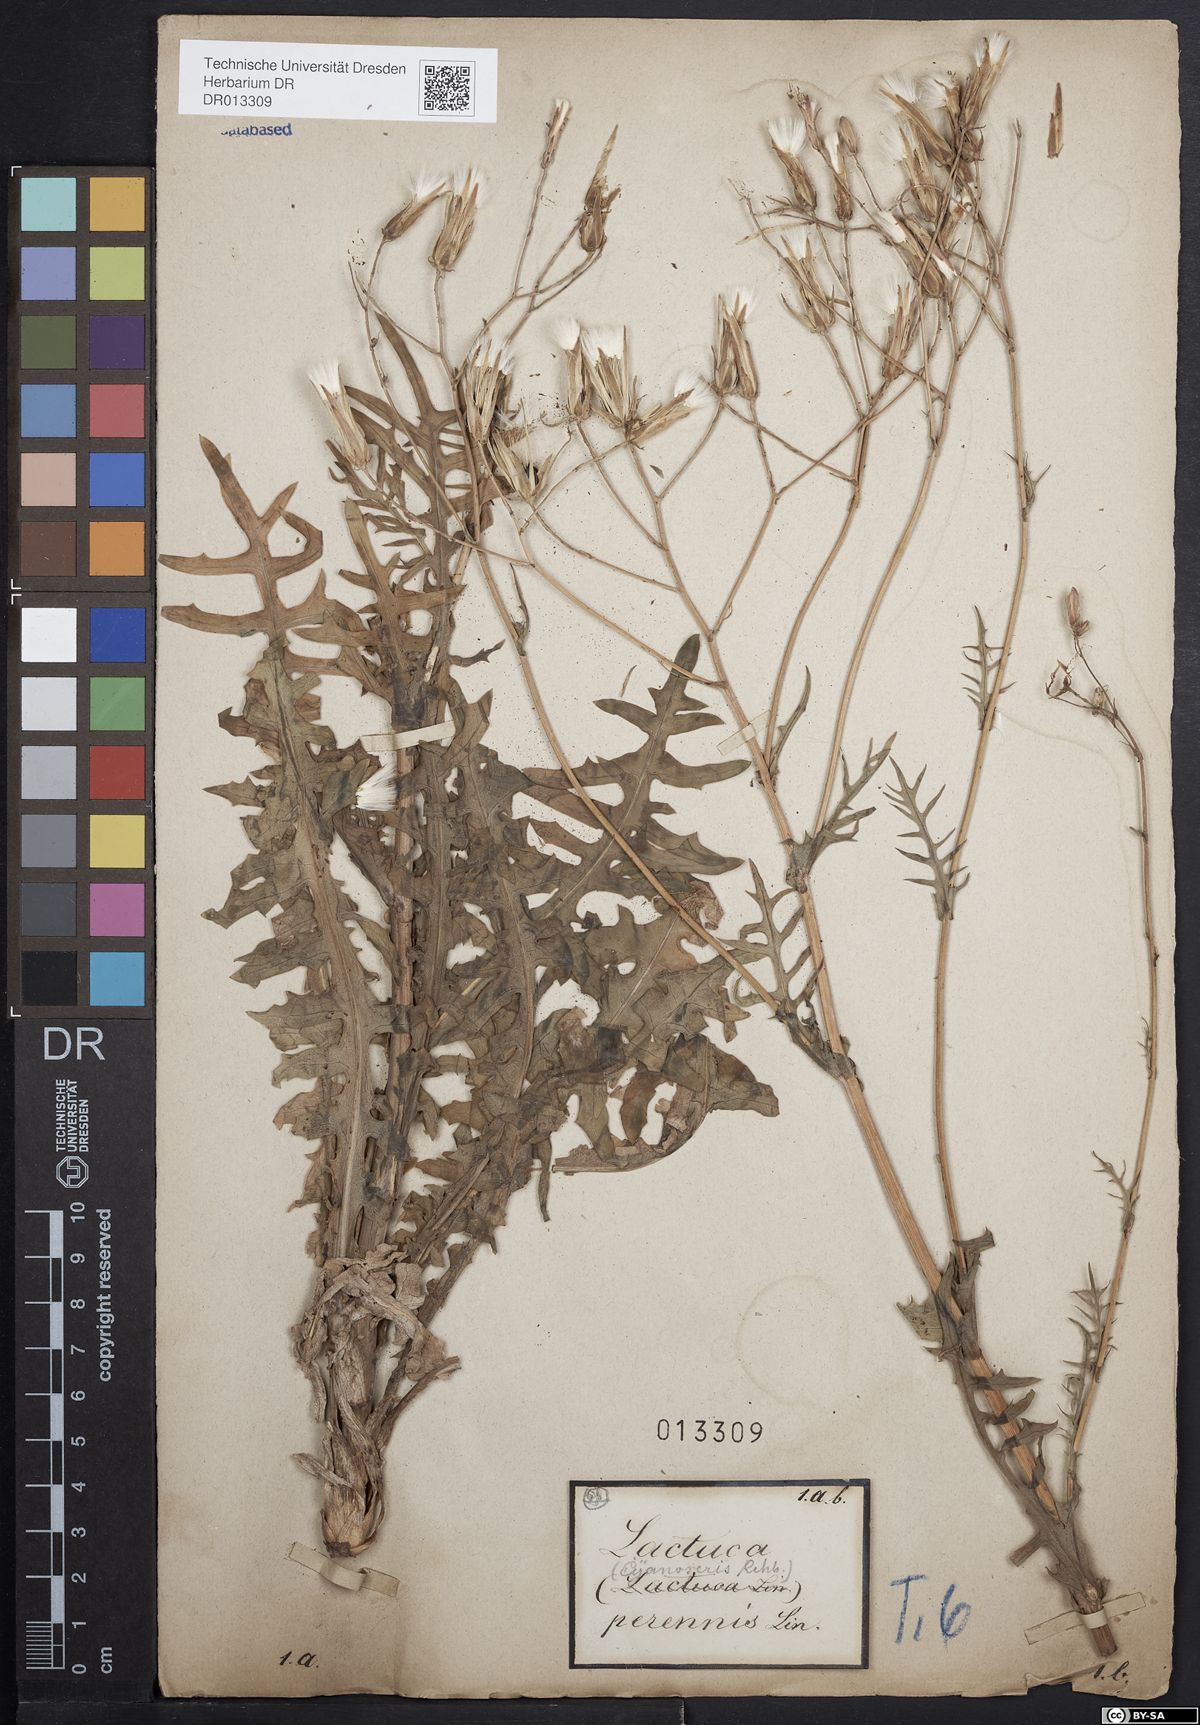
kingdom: Plantae
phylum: Tracheophyta
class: Magnoliopsida
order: Asterales
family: Asteraceae
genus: Lactuca
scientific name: Lactuca perennis
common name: Mountain lettuce
